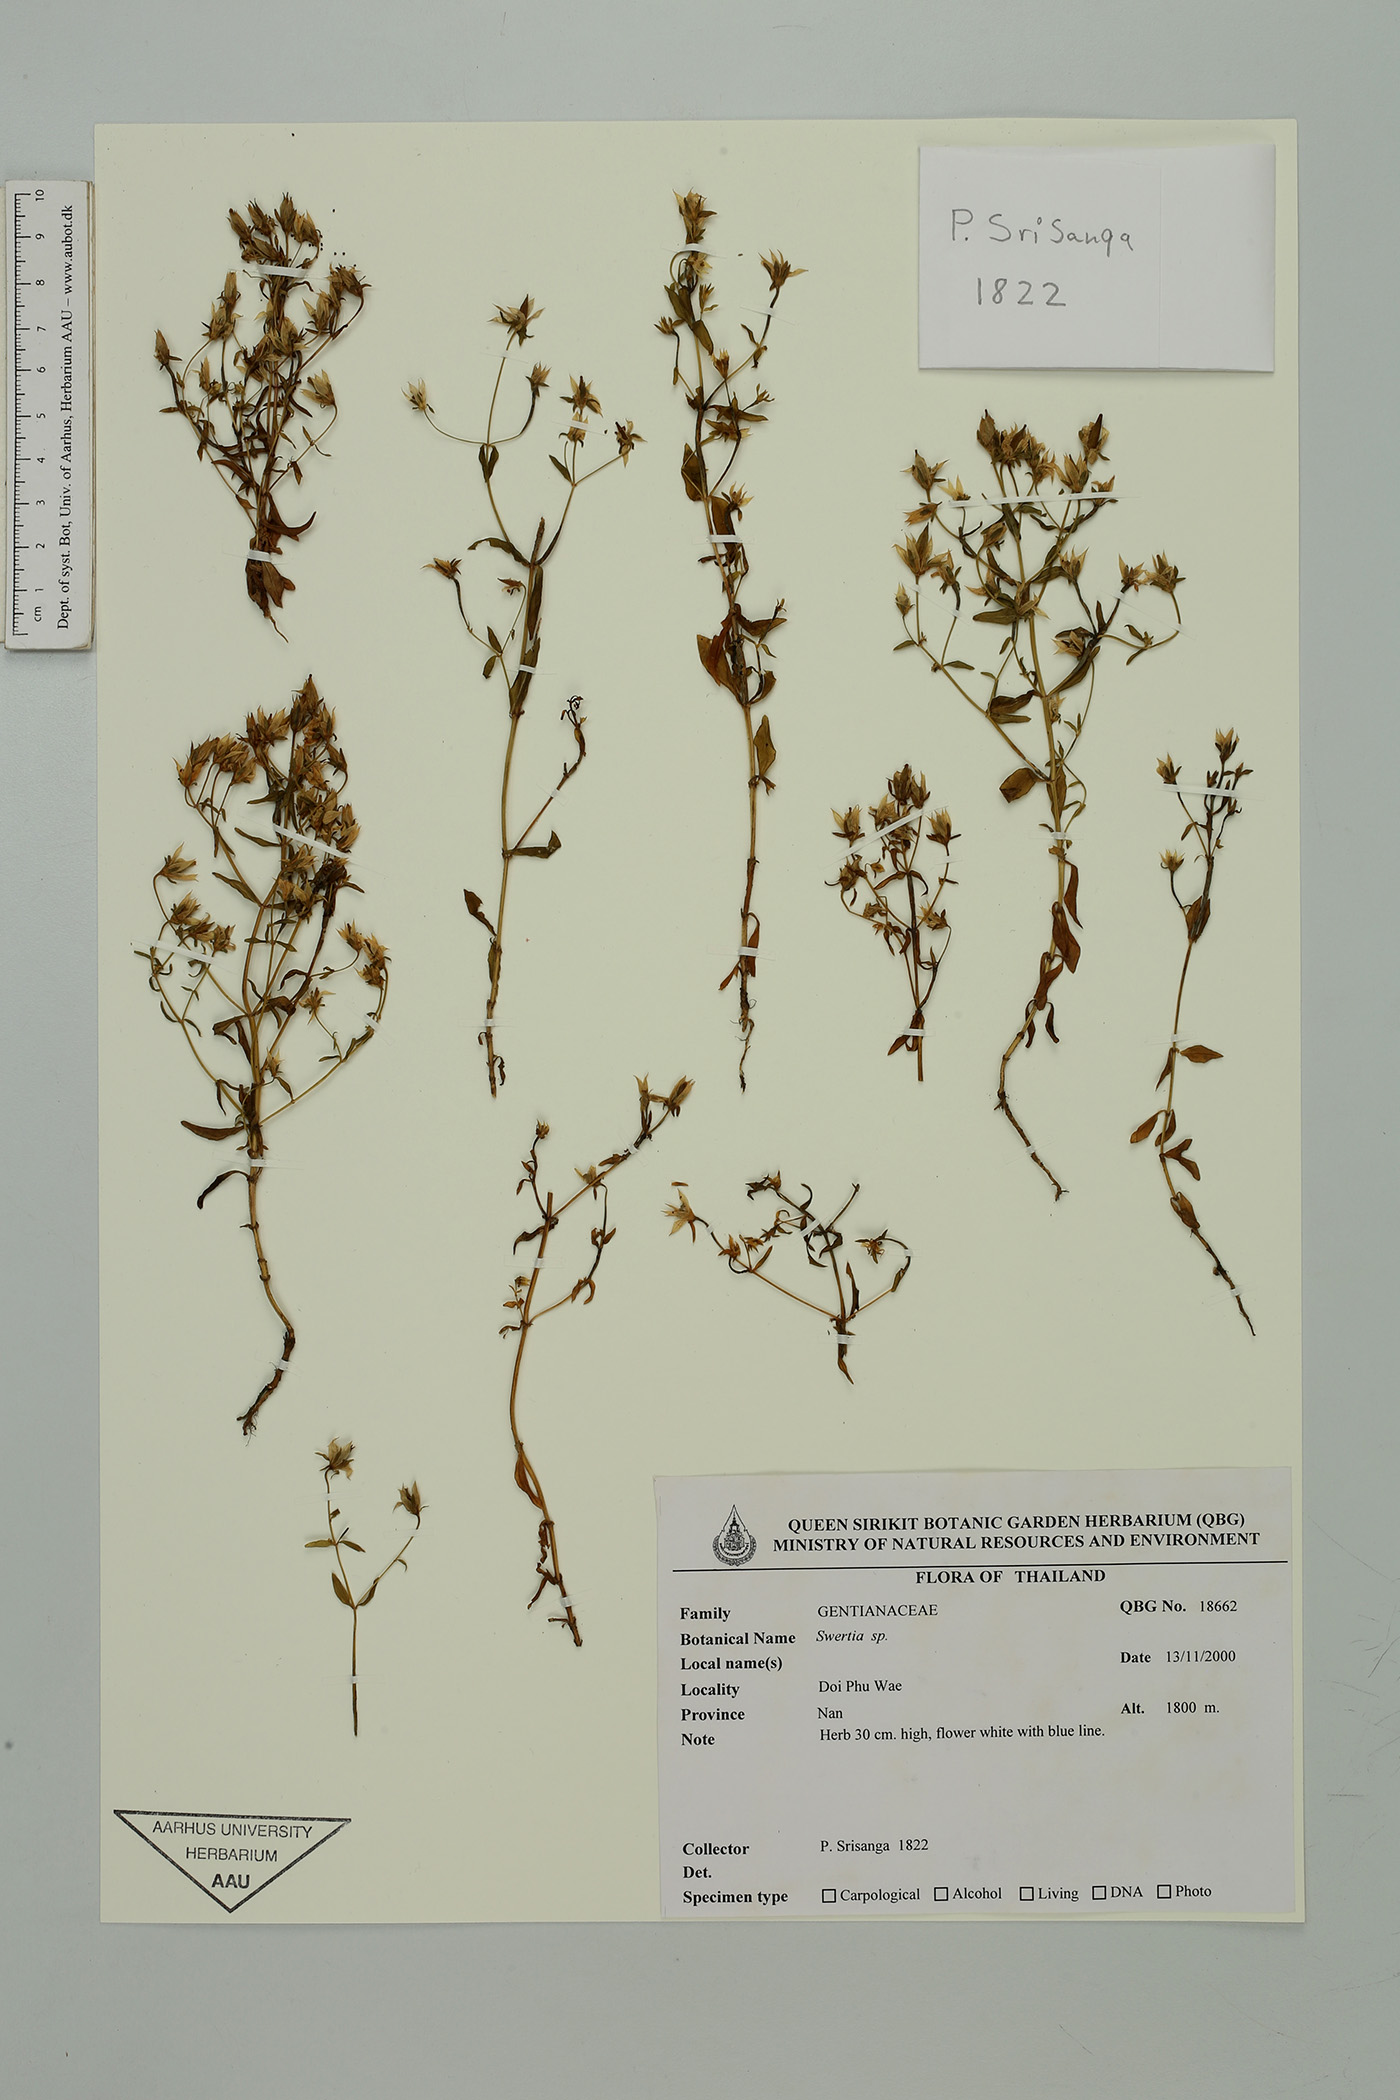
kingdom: Plantae
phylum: Tracheophyta
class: Magnoliopsida
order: Gentianales
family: Gentianaceae
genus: Swertia
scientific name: Swertia striata
